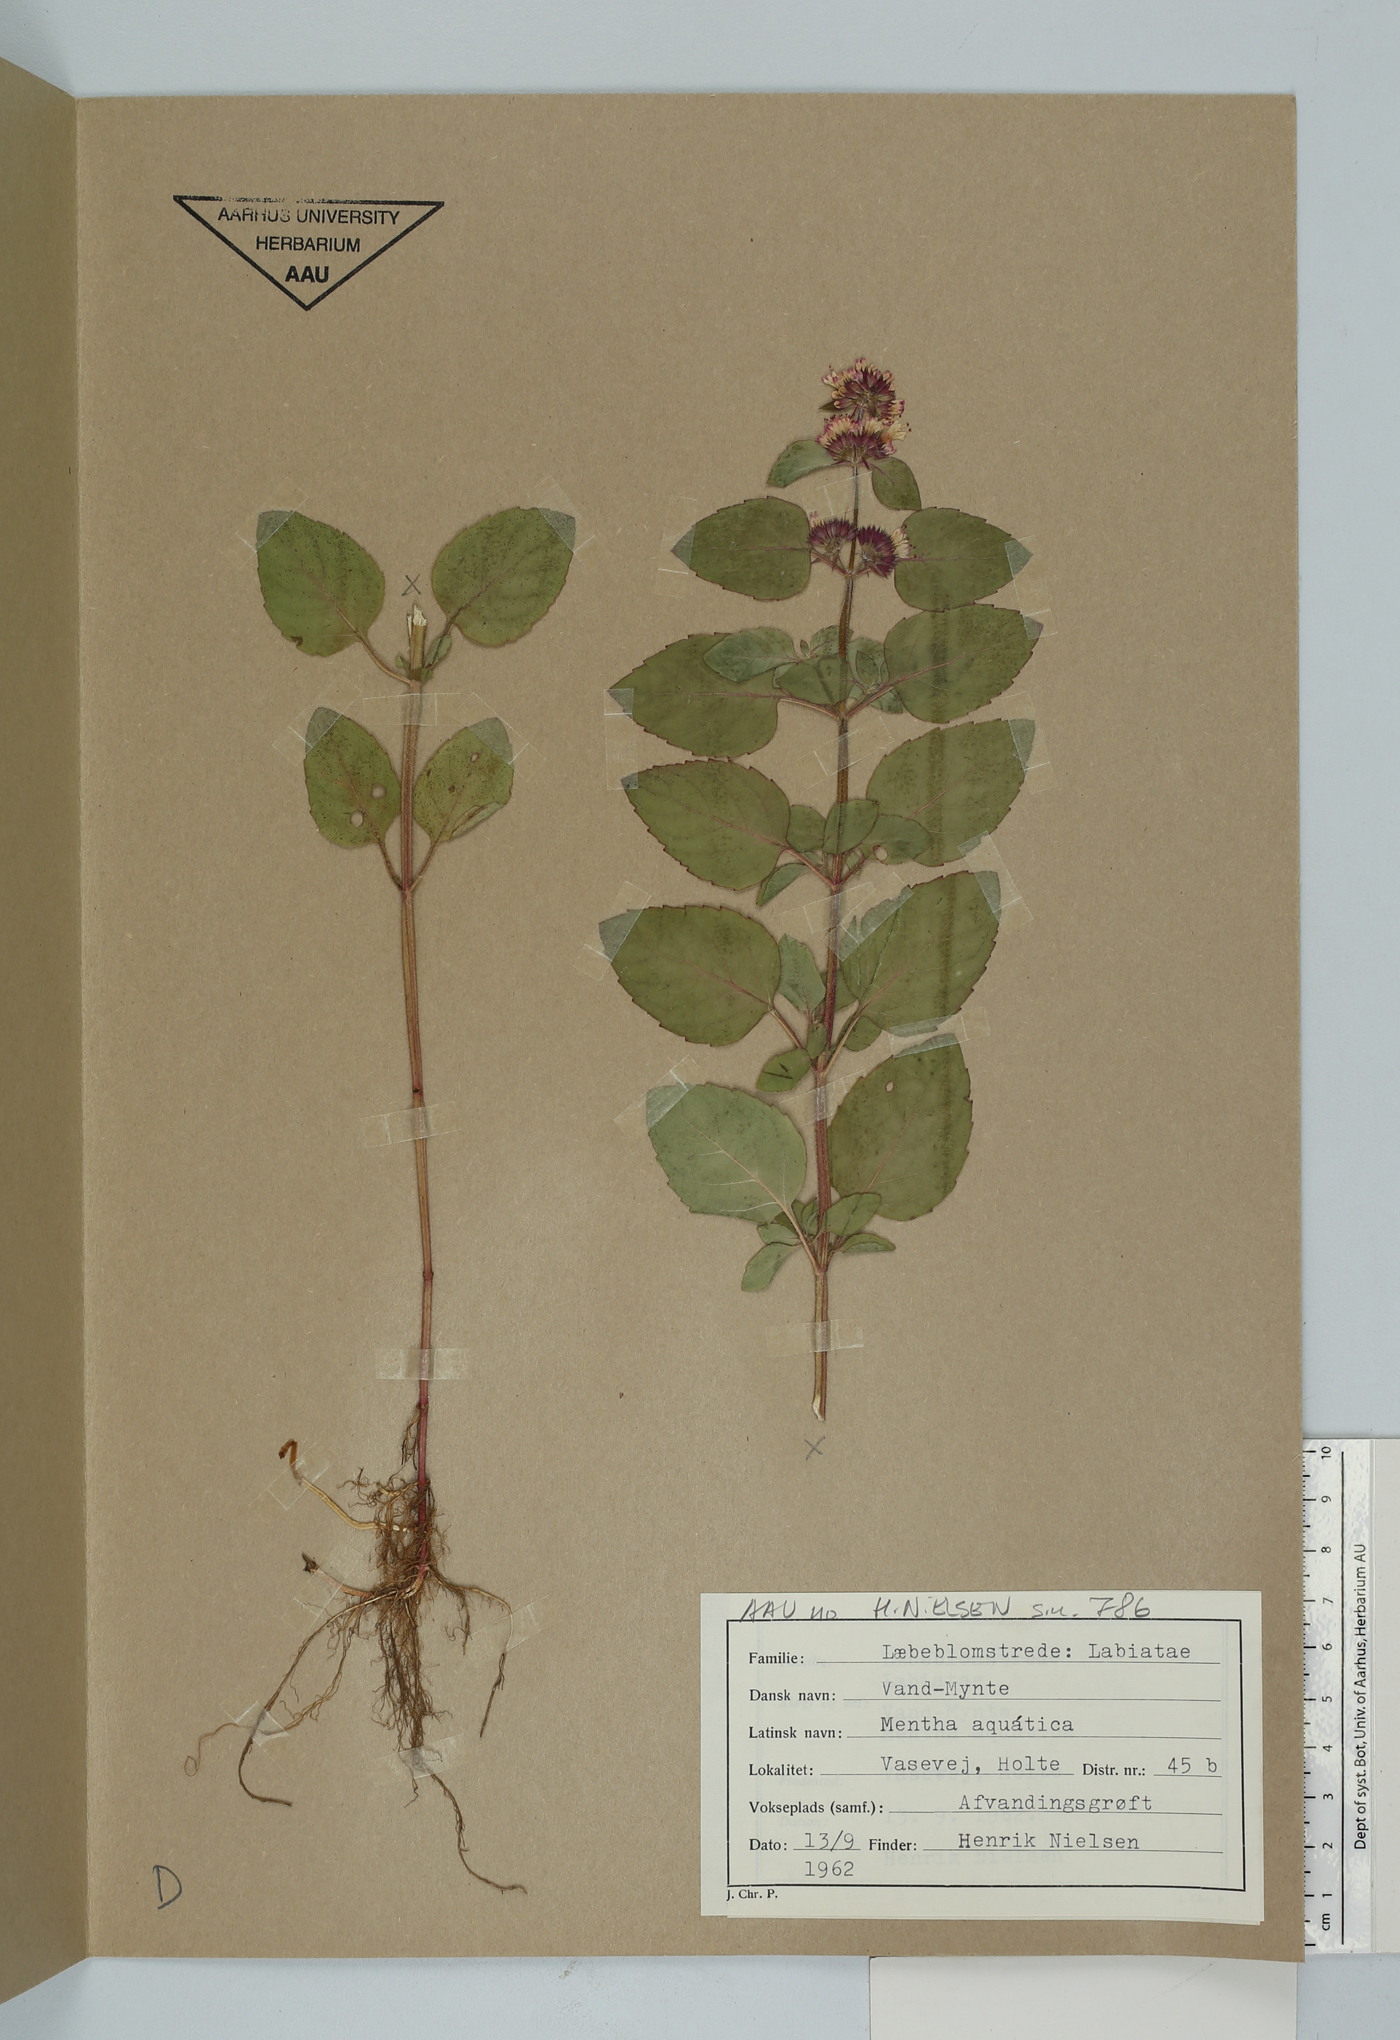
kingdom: Plantae
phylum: Tracheophyta
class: Magnoliopsida
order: Lamiales
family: Lamiaceae
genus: Mentha
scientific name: Mentha aquatica
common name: Water mint
